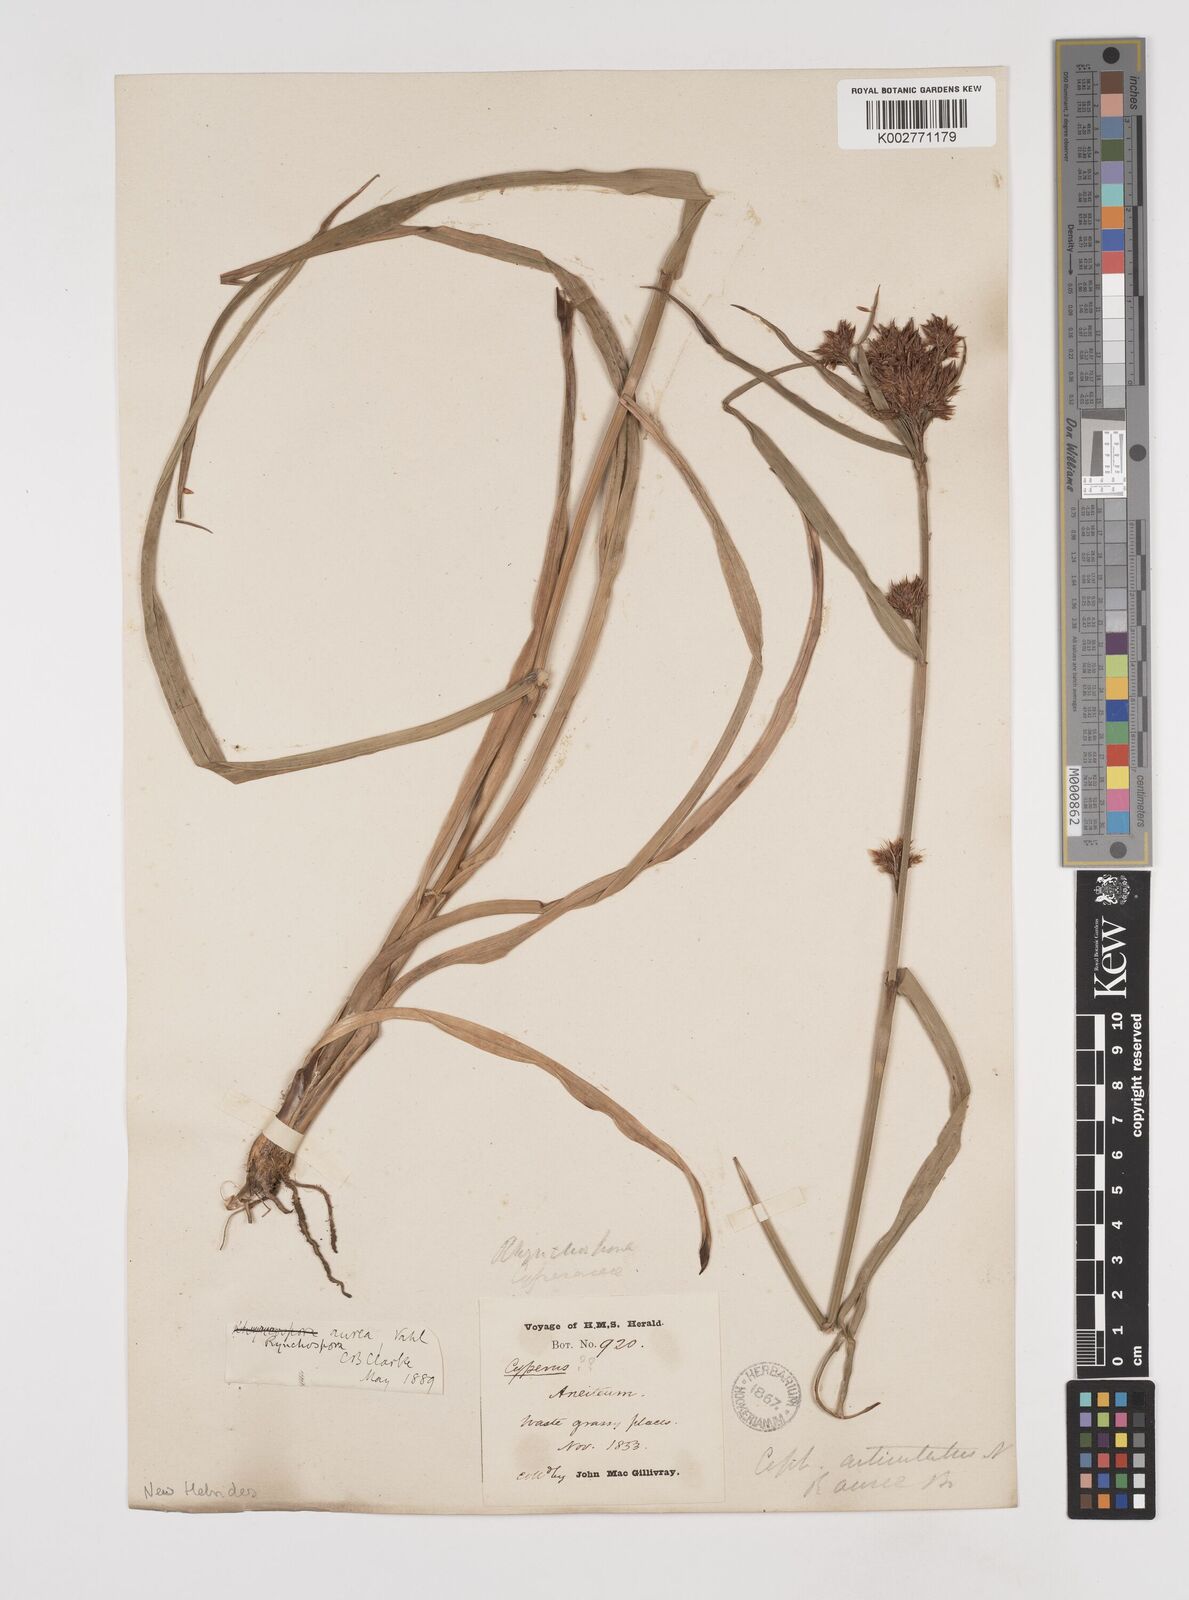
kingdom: Plantae
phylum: Tracheophyta
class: Liliopsida
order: Poales
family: Cyperaceae
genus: Rhynchospora
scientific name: Rhynchospora corymbosa
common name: Golden beak sedge
